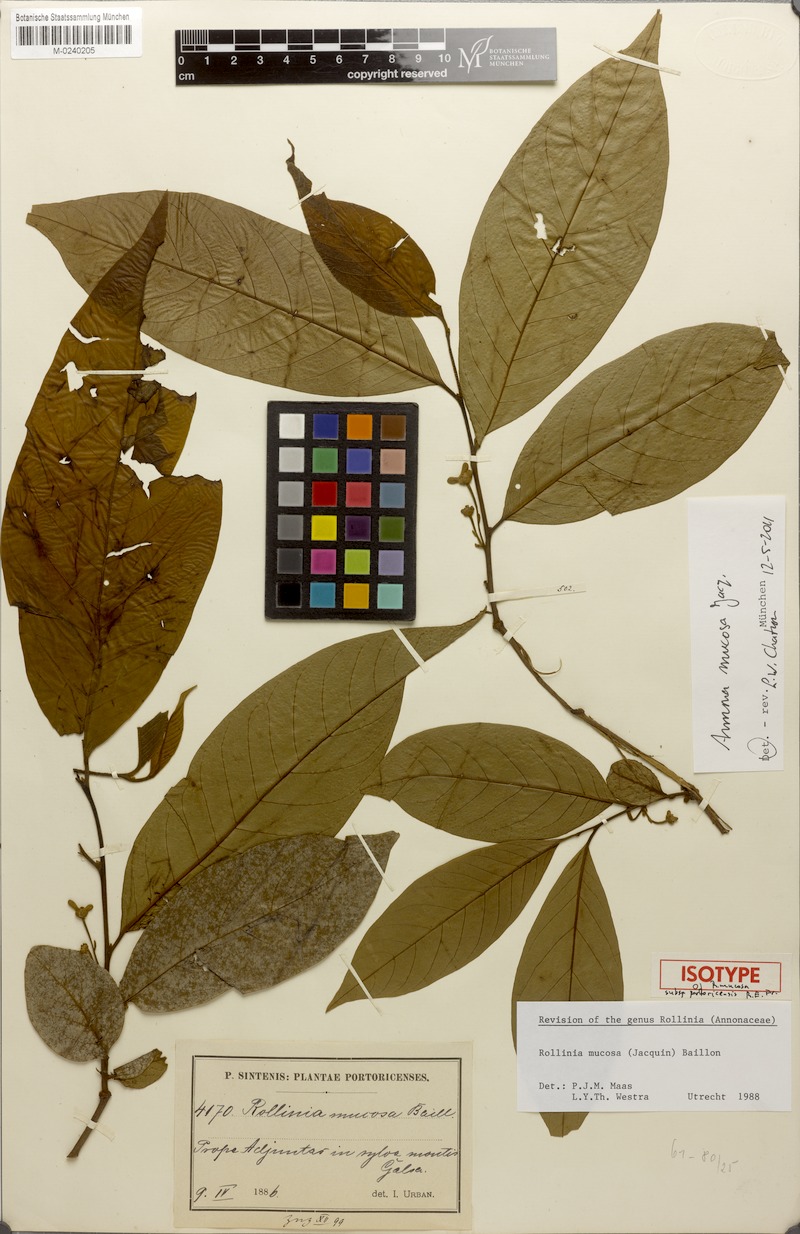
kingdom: Plantae
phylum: Tracheophyta
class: Magnoliopsida
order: Magnoliales
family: Annonaceae
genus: Annona
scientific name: Annona mucosa
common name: Sugar apple
